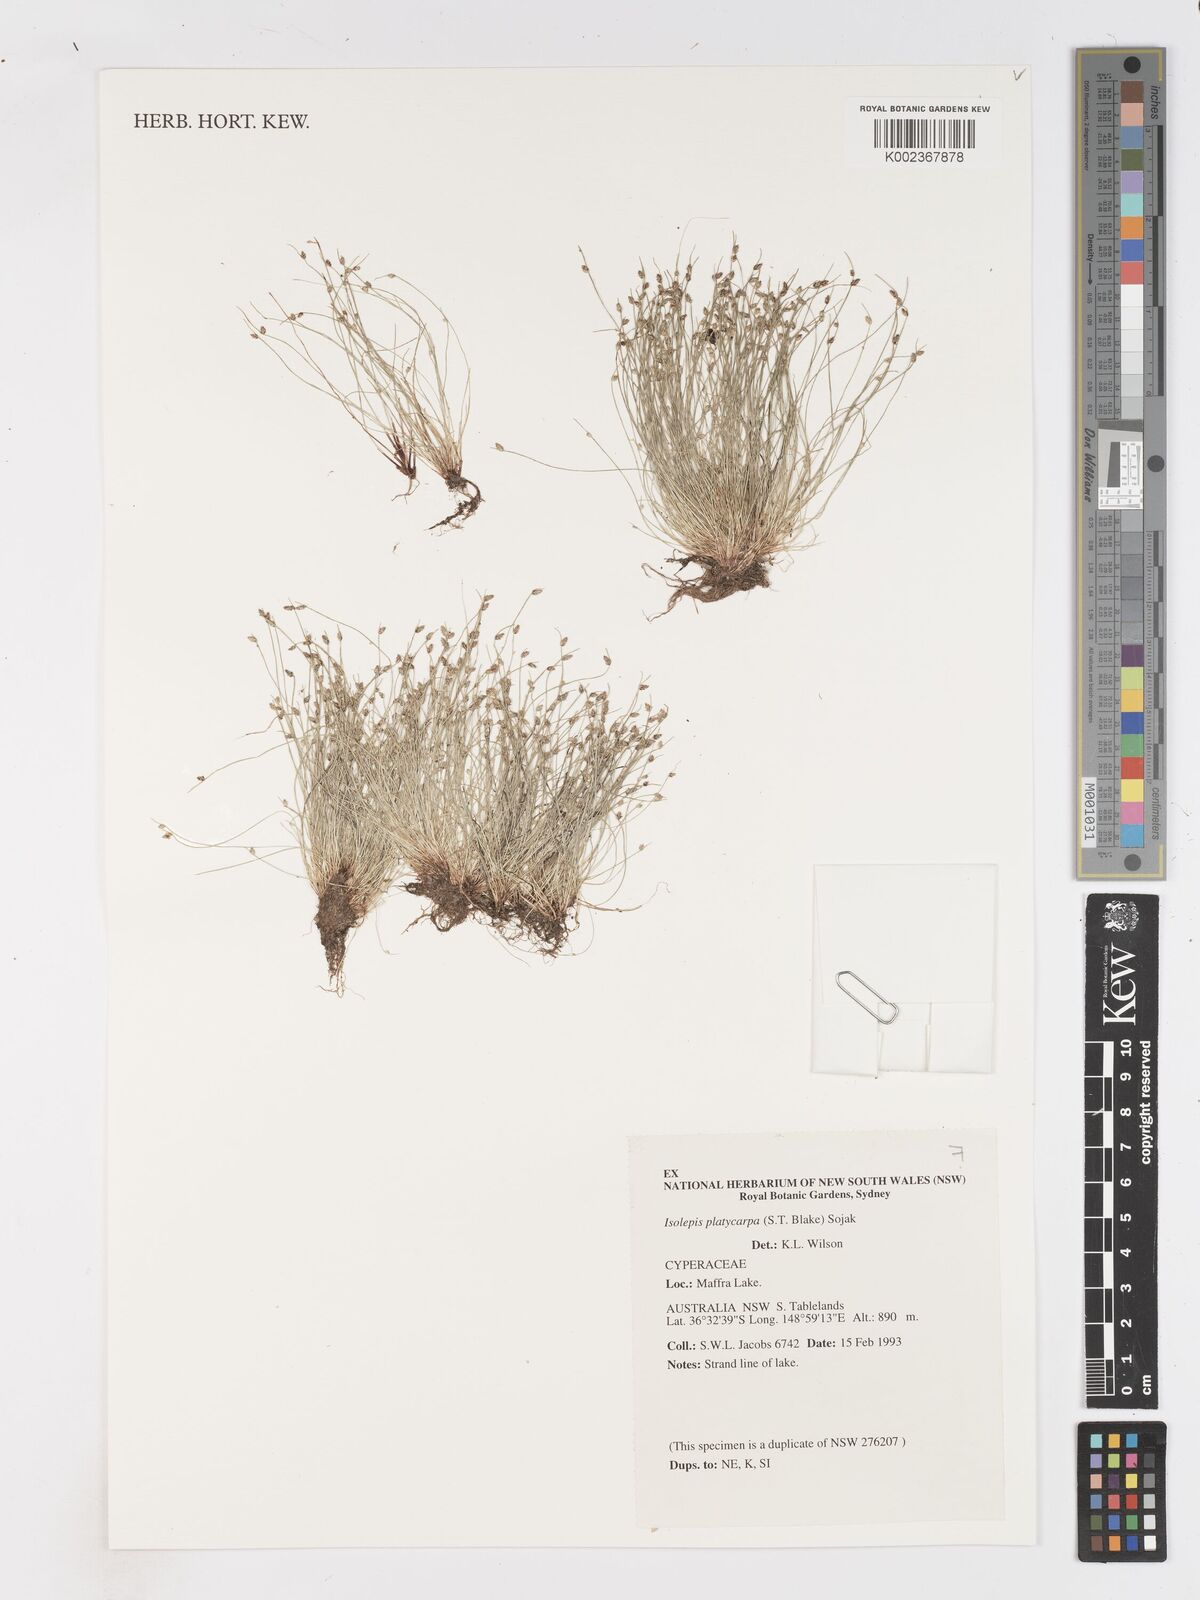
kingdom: Plantae
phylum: Tracheophyta
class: Liliopsida
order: Poales
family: Cyperaceae
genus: Isolepis
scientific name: Isolepis cernua
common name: Slender club-rush
